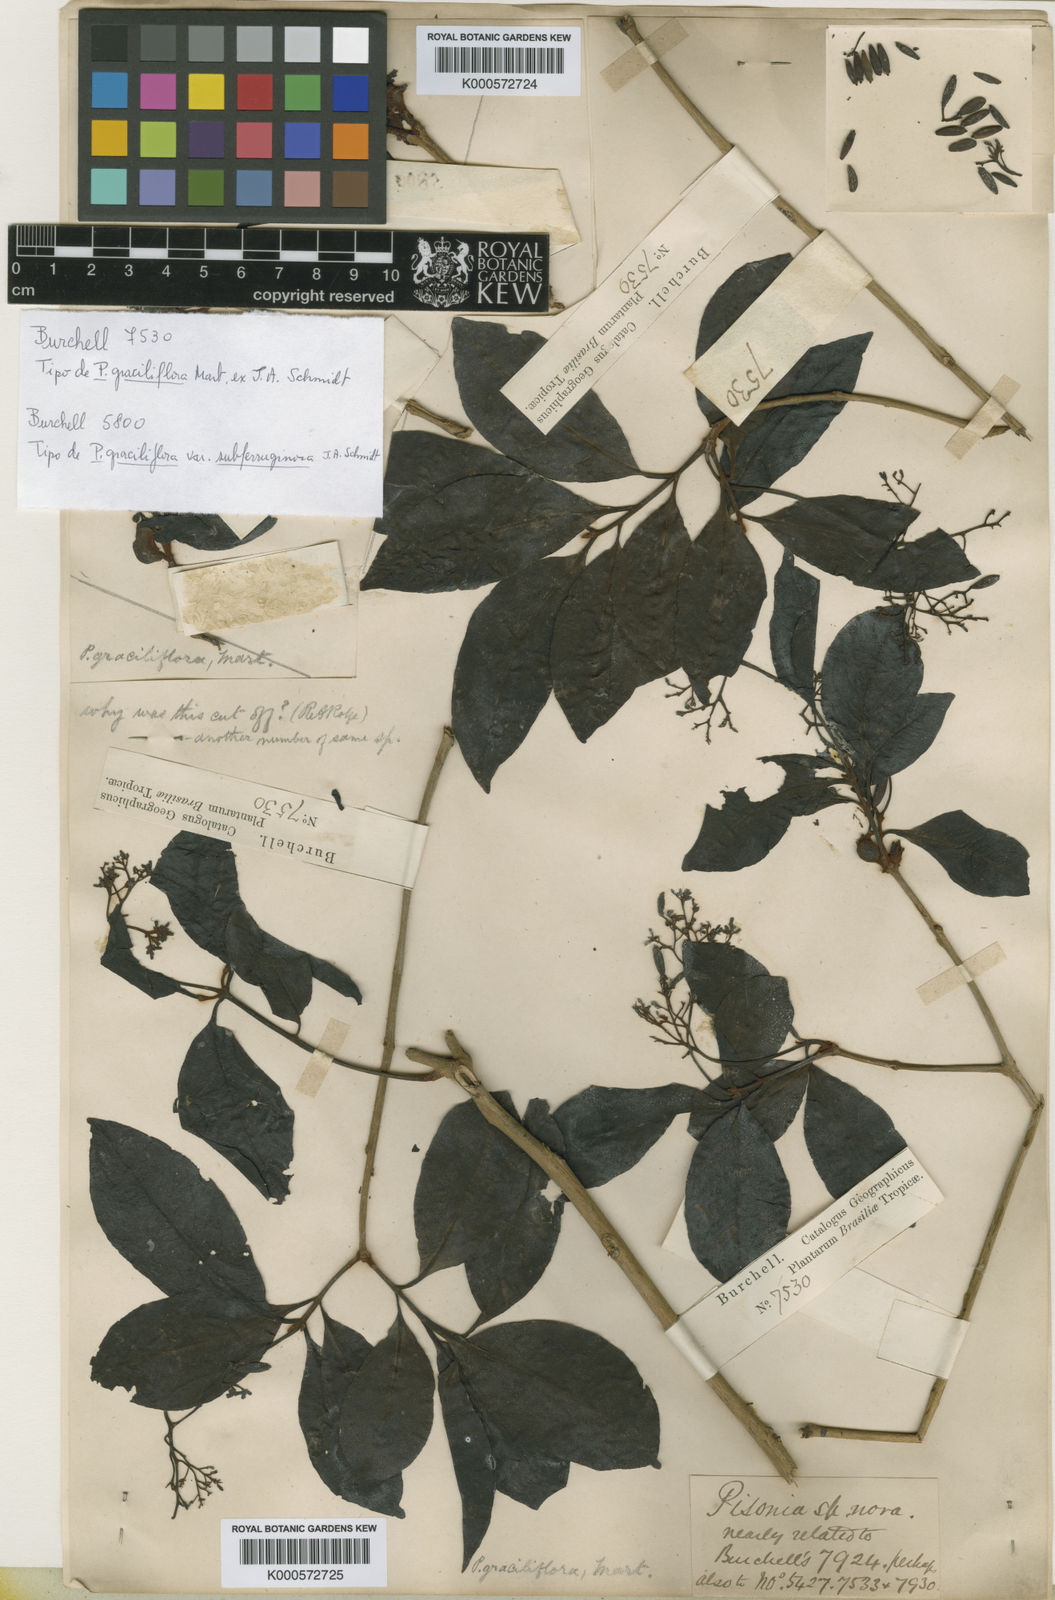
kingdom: Plantae
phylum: Tracheophyta
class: Magnoliopsida
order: Caryophyllales
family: Nyctaginaceae
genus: Guapira
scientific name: Guapira graciliflora
